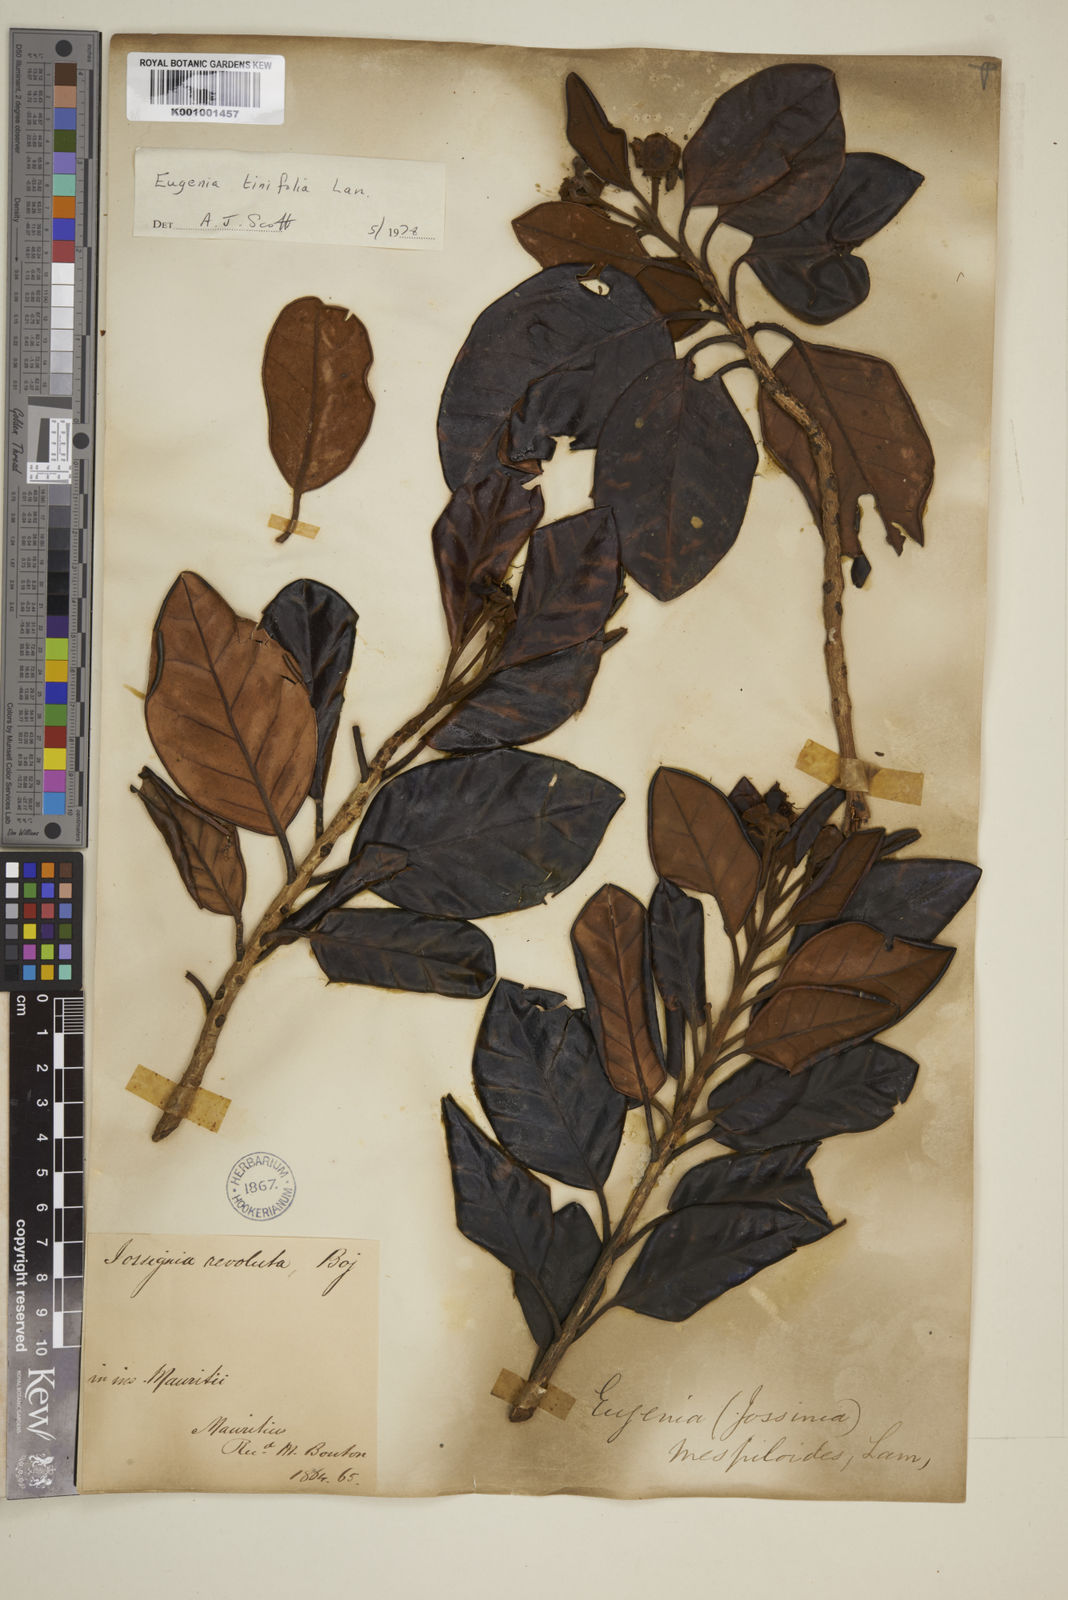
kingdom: Plantae
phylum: Tracheophyta
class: Magnoliopsida
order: Myrtales
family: Myrtaceae
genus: Eugenia
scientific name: Eugenia tinifolia
